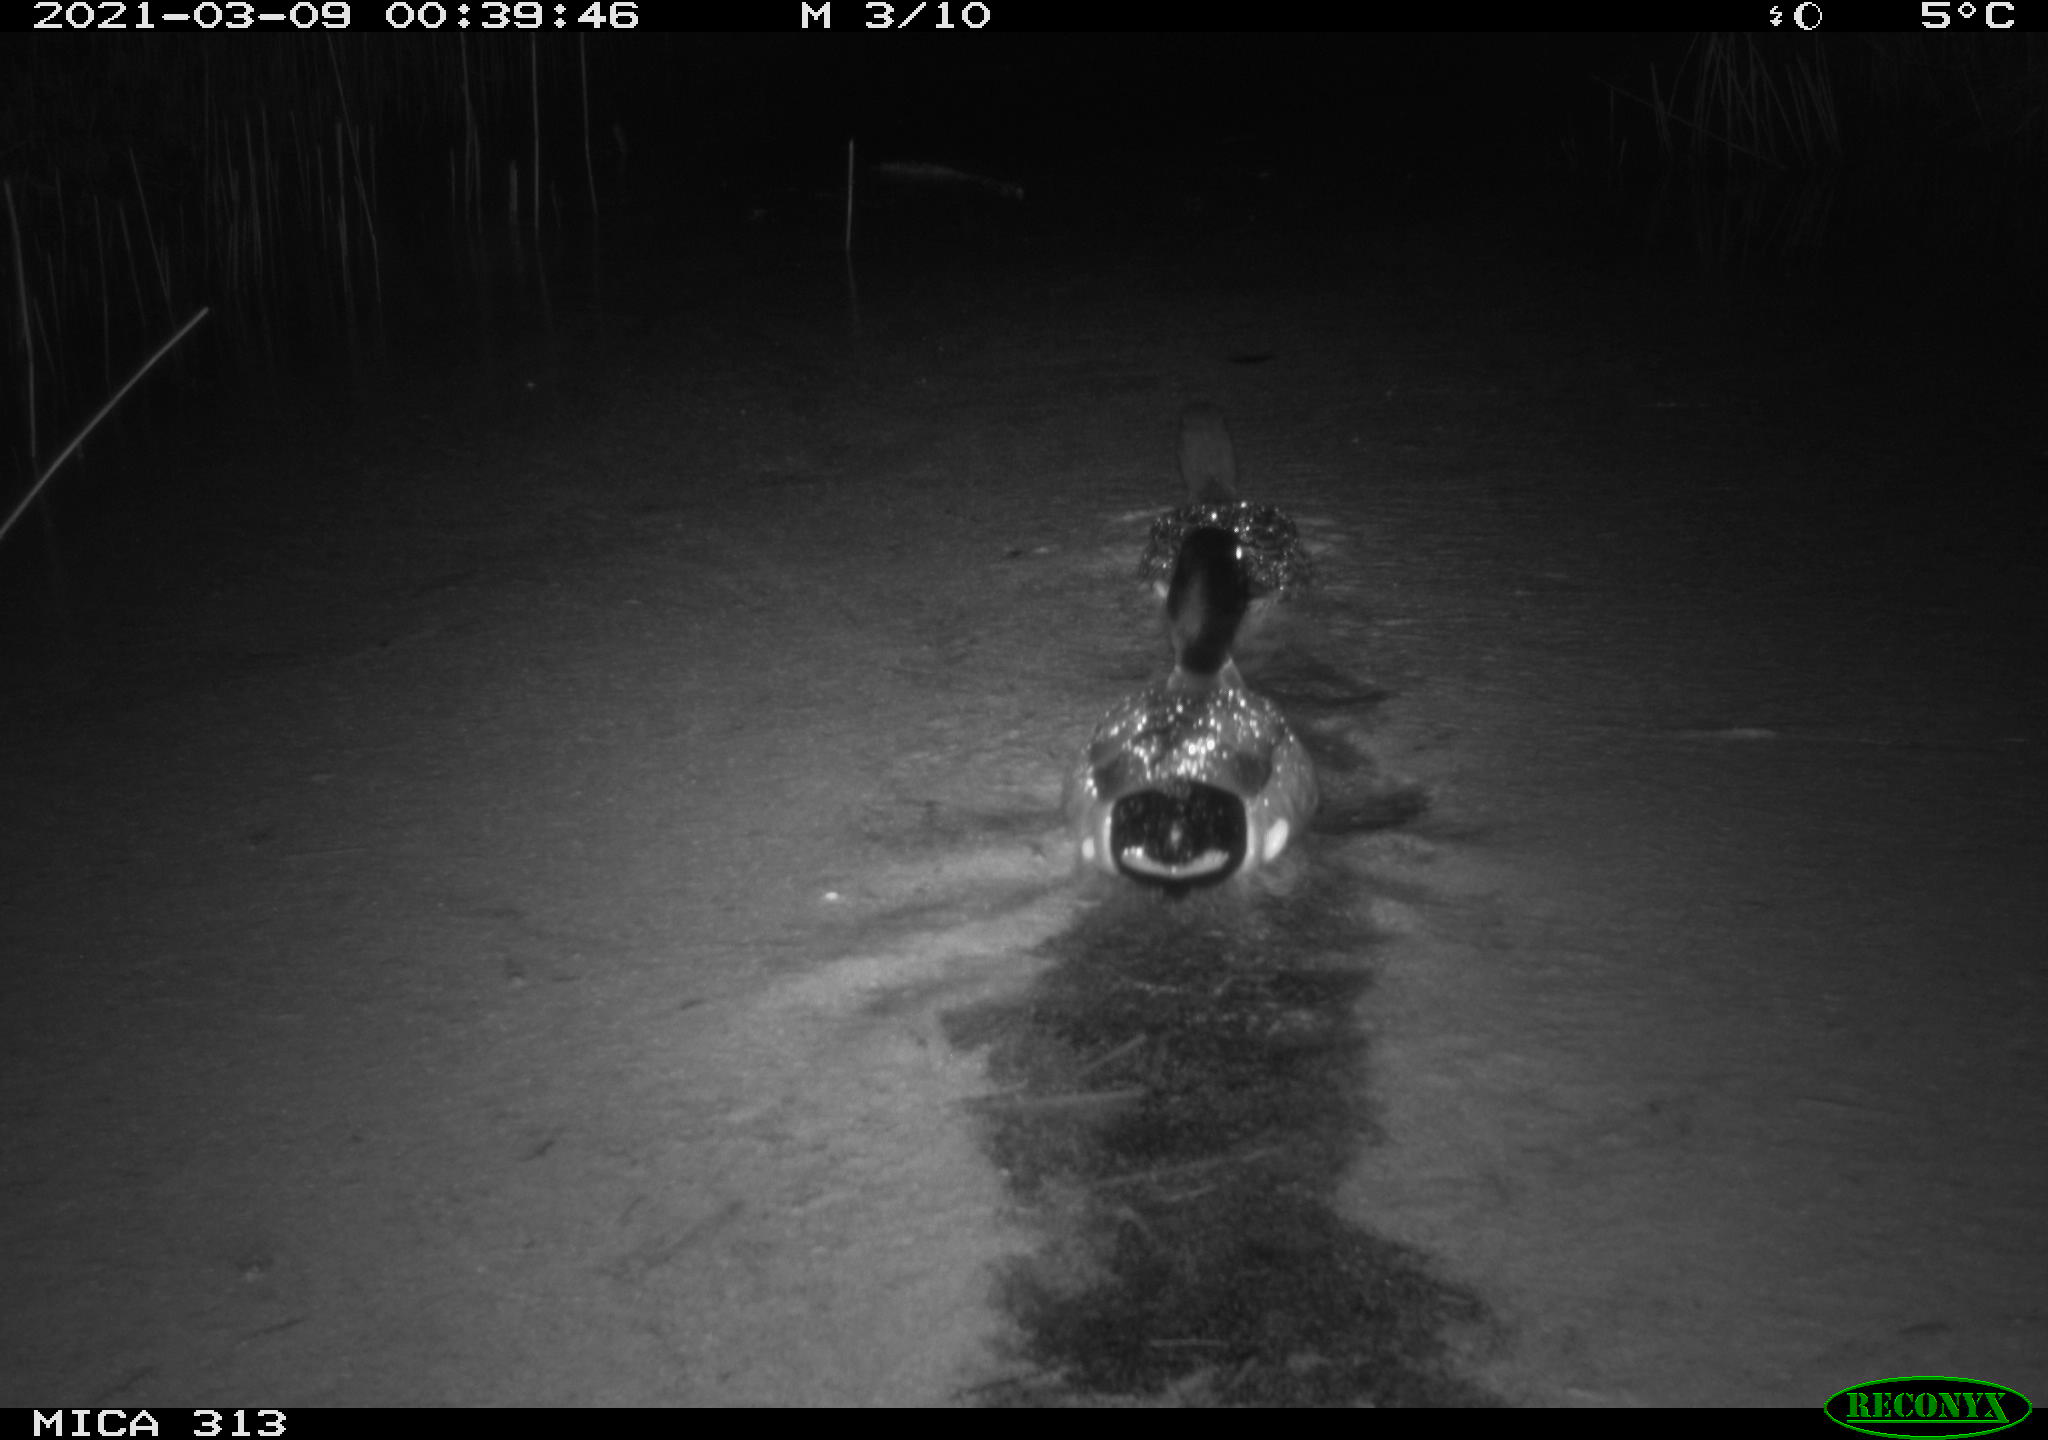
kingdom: Animalia
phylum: Chordata
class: Aves
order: Anseriformes
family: Anatidae
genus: Anas
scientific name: Anas platyrhynchos
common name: Mallard
